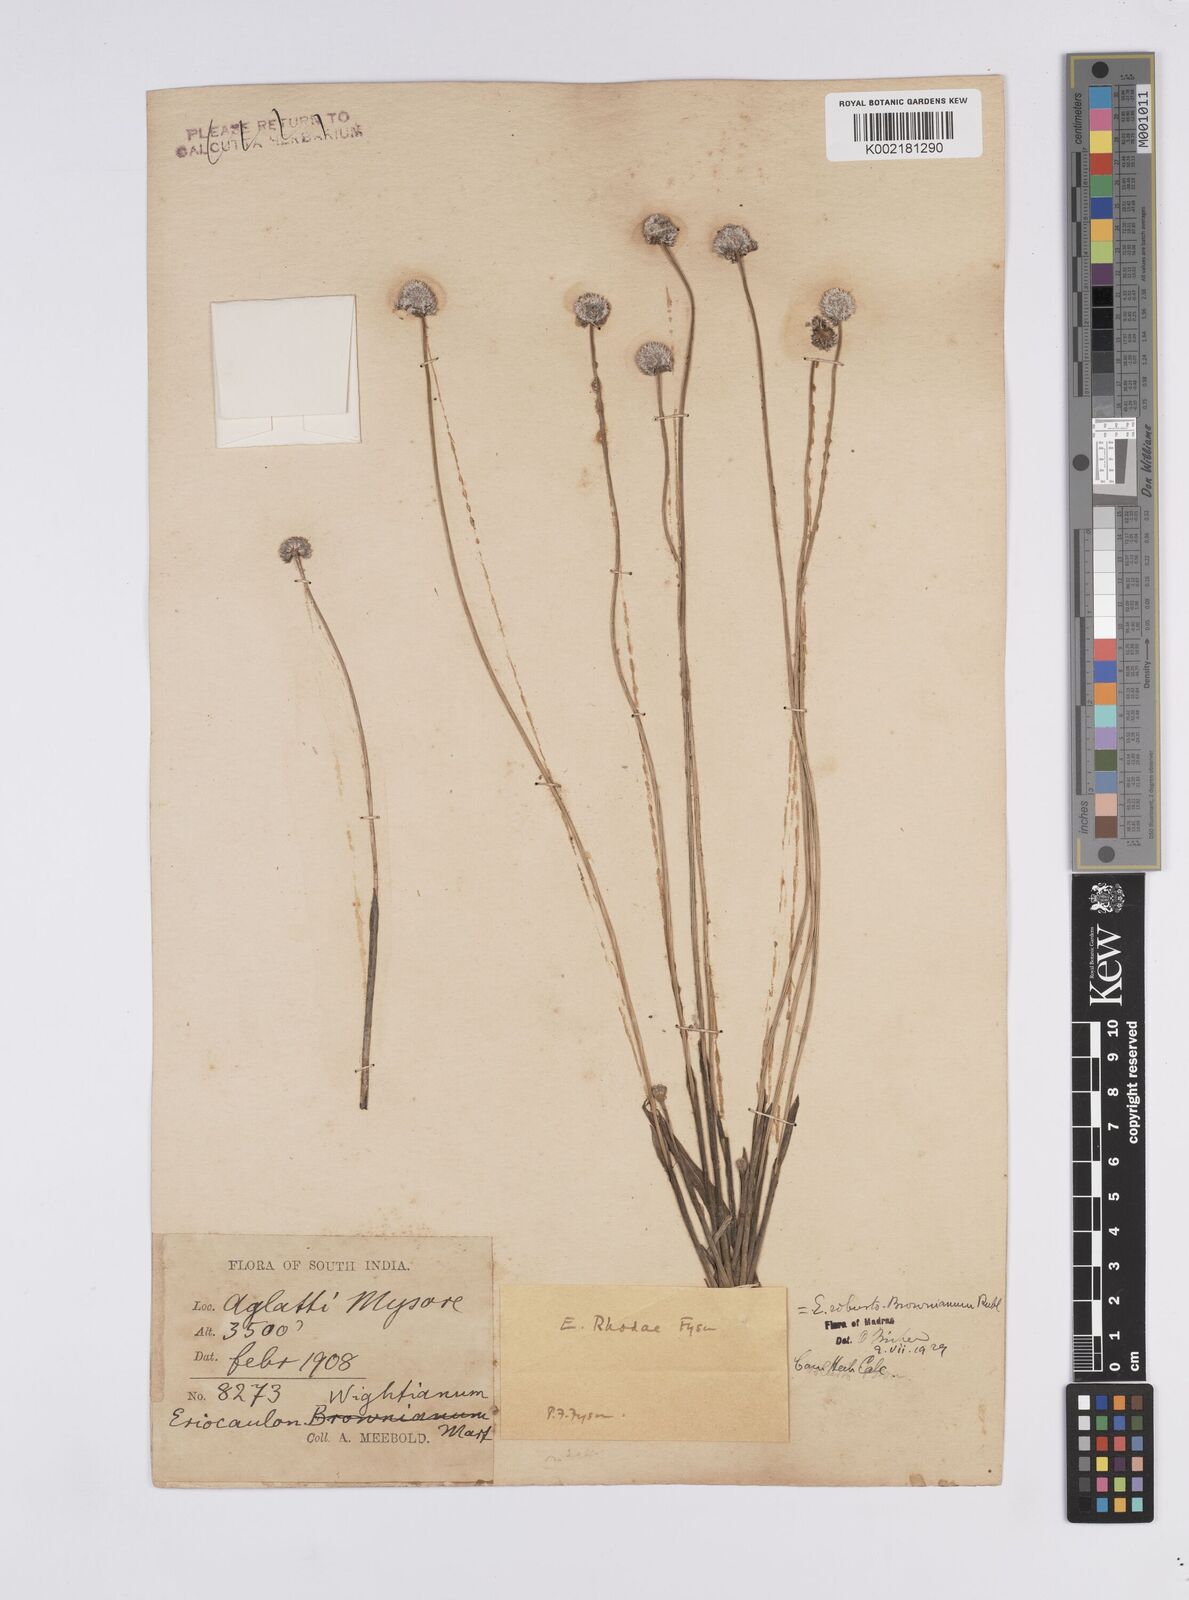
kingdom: Plantae
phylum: Tracheophyta
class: Liliopsida
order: Poales
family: Eriocaulaceae
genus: Eriocaulon
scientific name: Eriocaulon robustobrownianum
